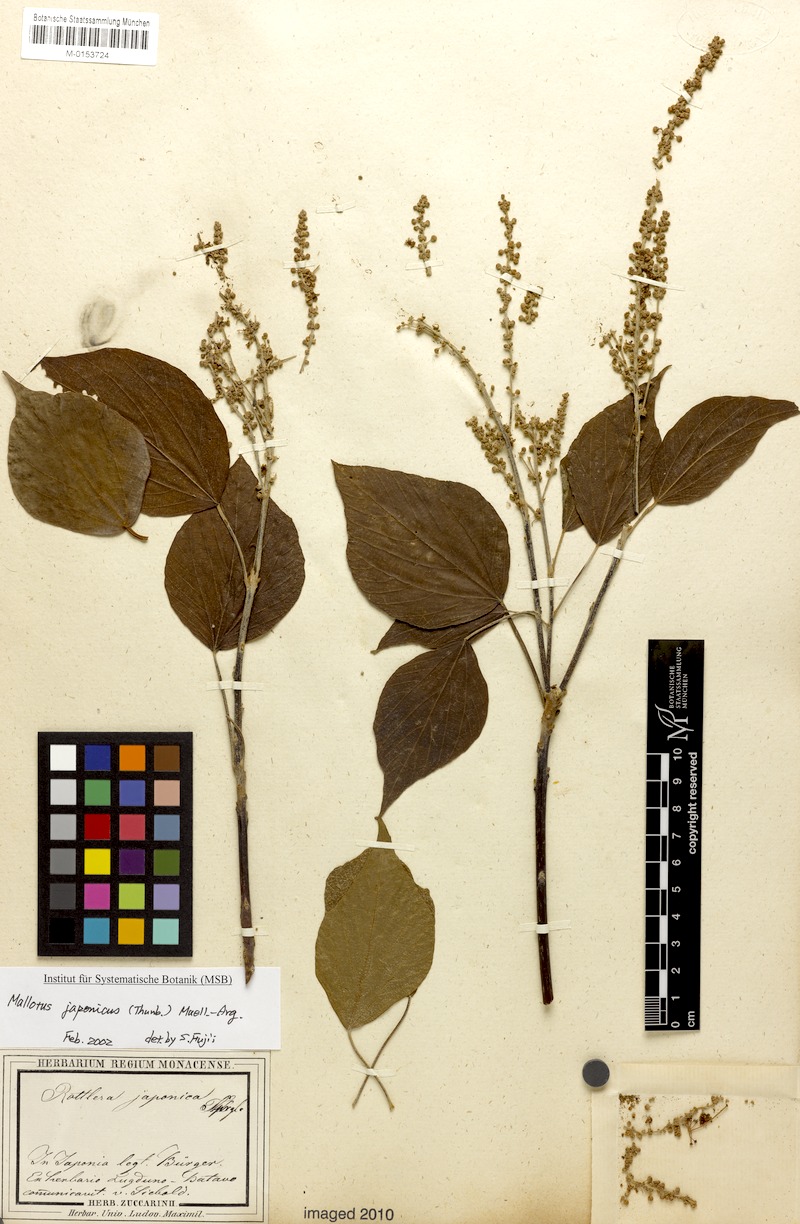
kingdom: Plantae
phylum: Tracheophyta
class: Magnoliopsida
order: Malpighiales
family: Euphorbiaceae
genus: Mallotus
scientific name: Mallotus japonicus
